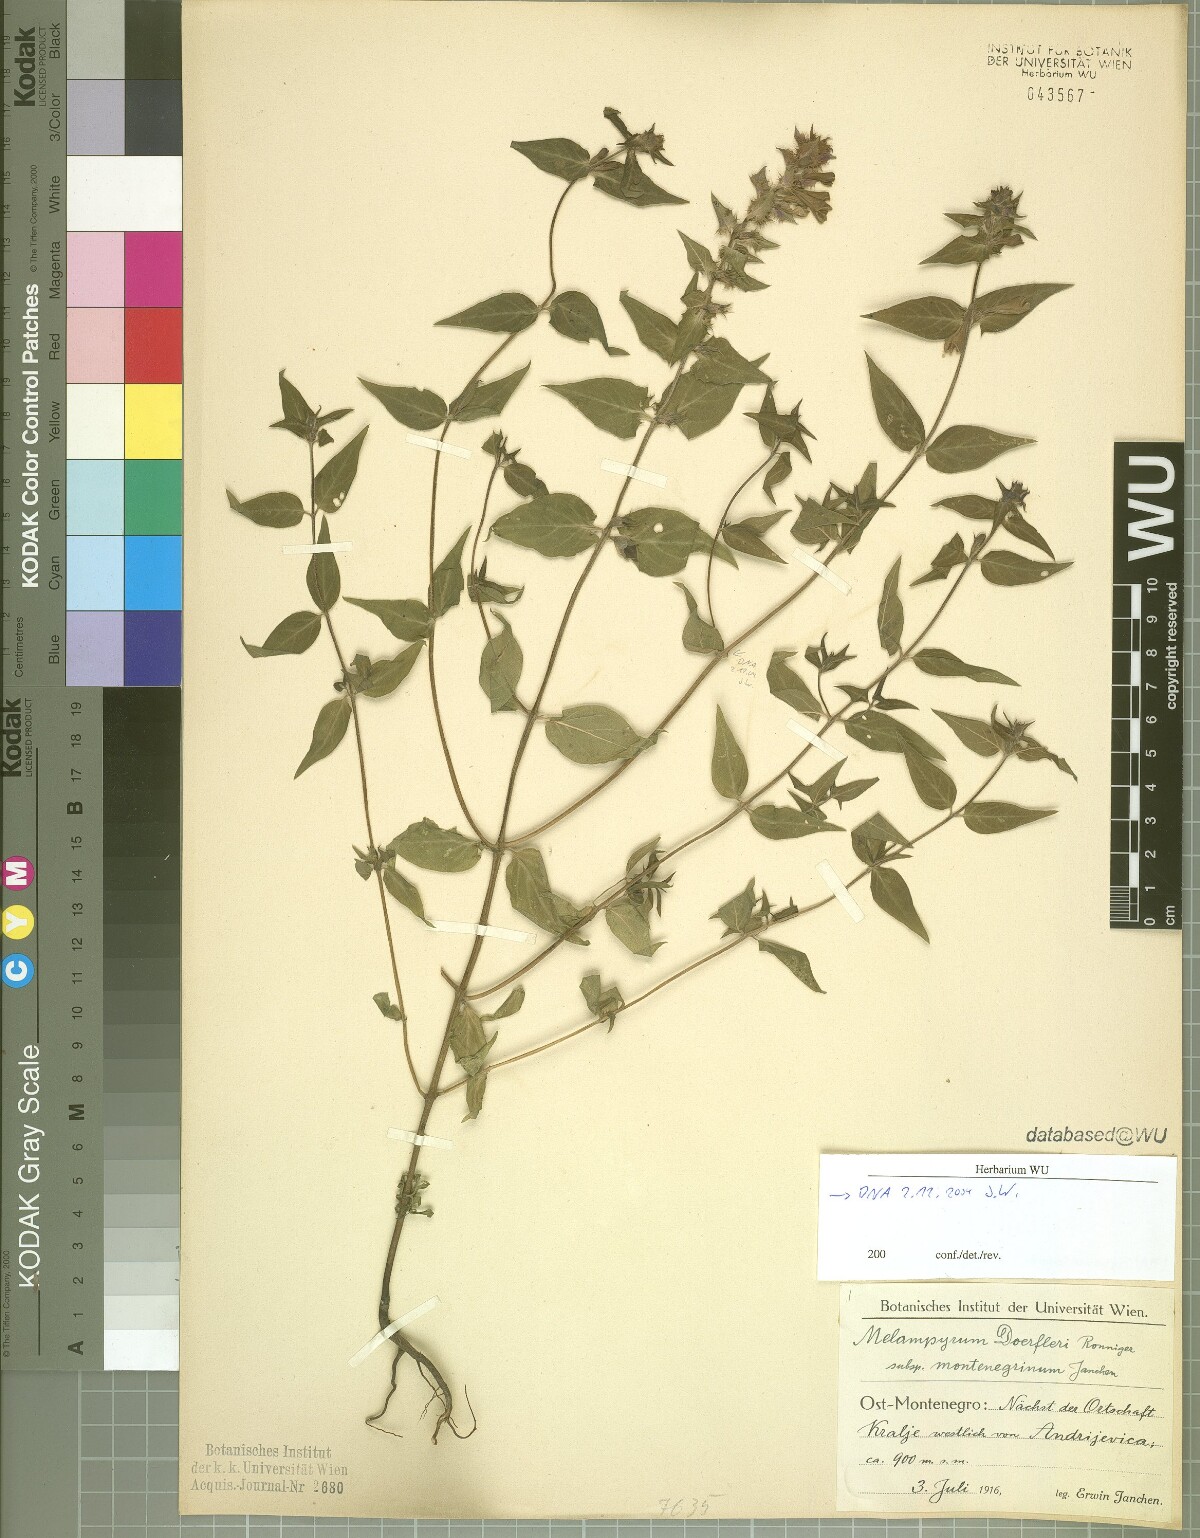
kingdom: Plantae
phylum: Tracheophyta
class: Magnoliopsida
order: Lamiales
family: Orobanchaceae
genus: Melampyrum
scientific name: Melampyrum doerfleri
